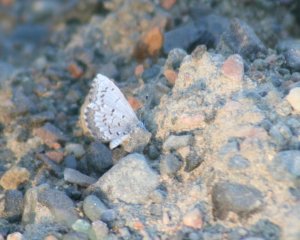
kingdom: Animalia
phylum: Arthropoda
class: Insecta
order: Lepidoptera
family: Lycaenidae
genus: Celastrina
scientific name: Celastrina lucia
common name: Northern Spring Azure
